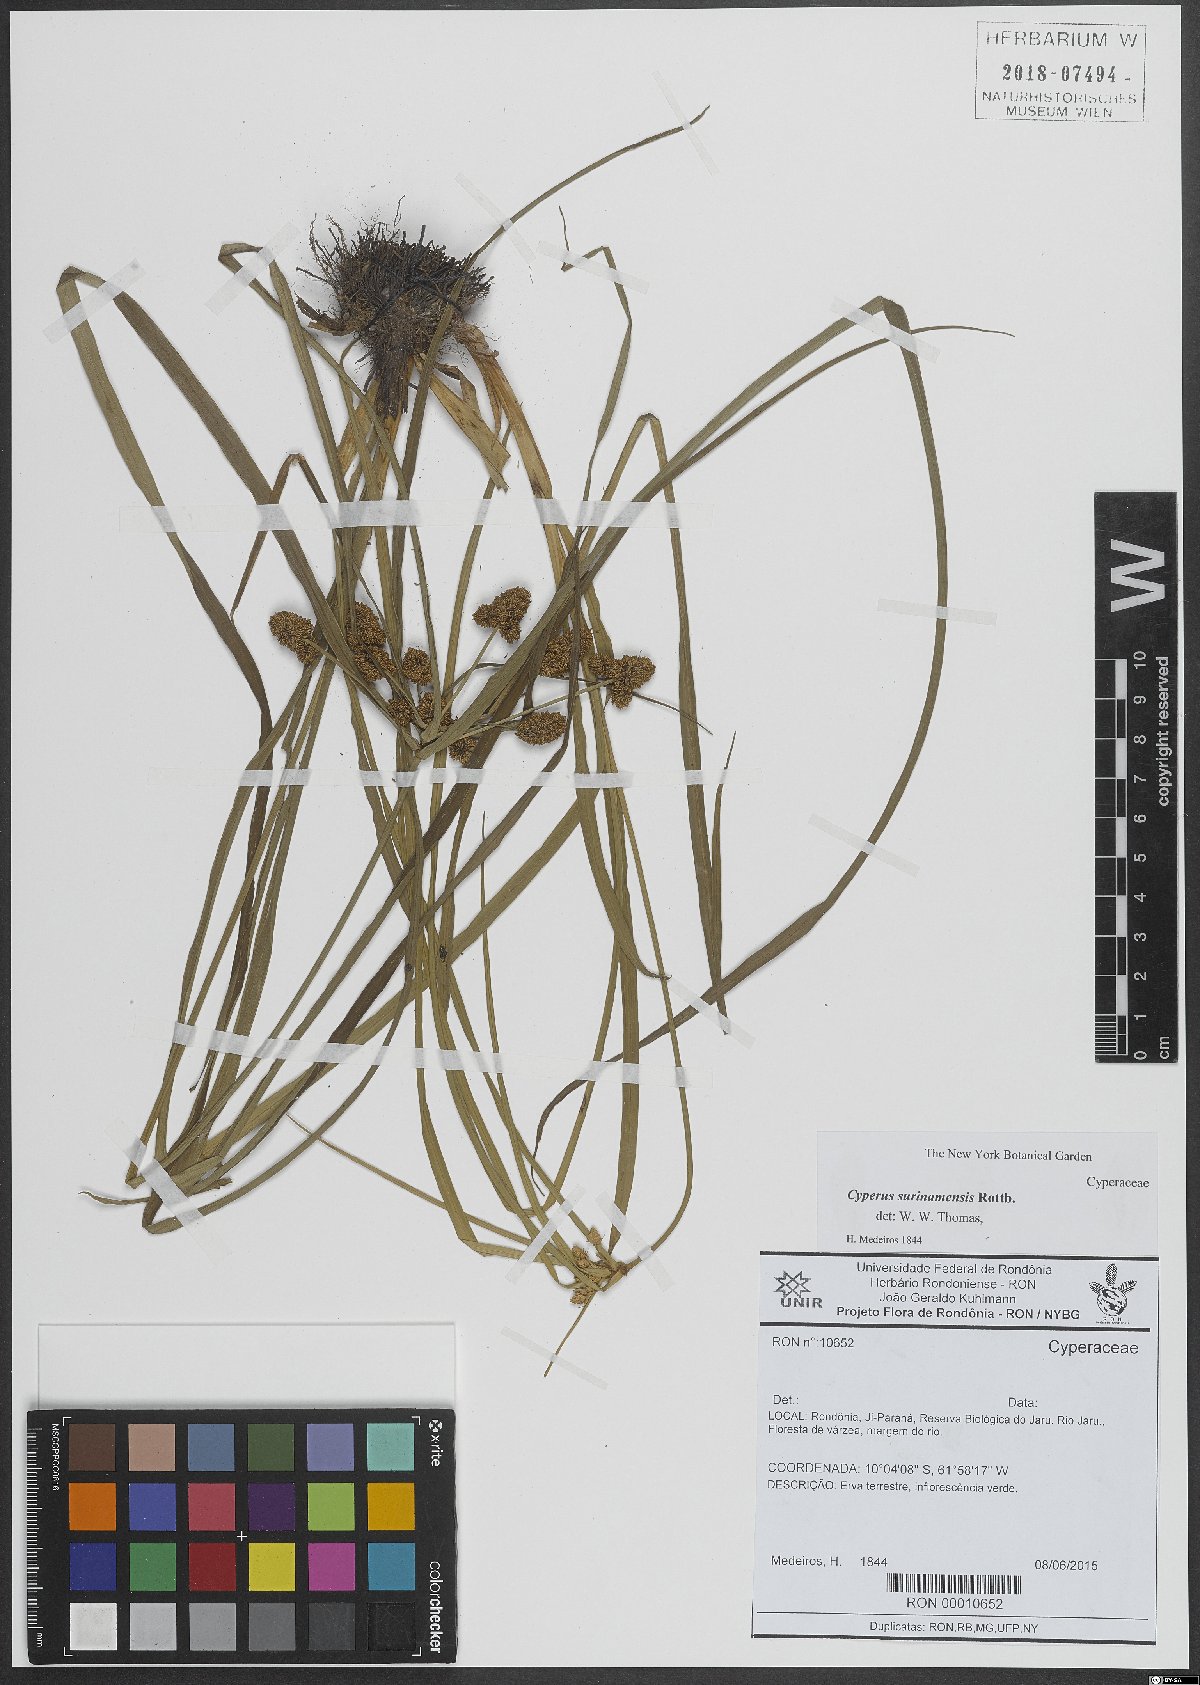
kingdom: Plantae
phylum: Tracheophyta
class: Liliopsida
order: Poales
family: Cyperaceae
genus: Cyperus
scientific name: Cyperus surinamensis
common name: Tropical flat sedge
